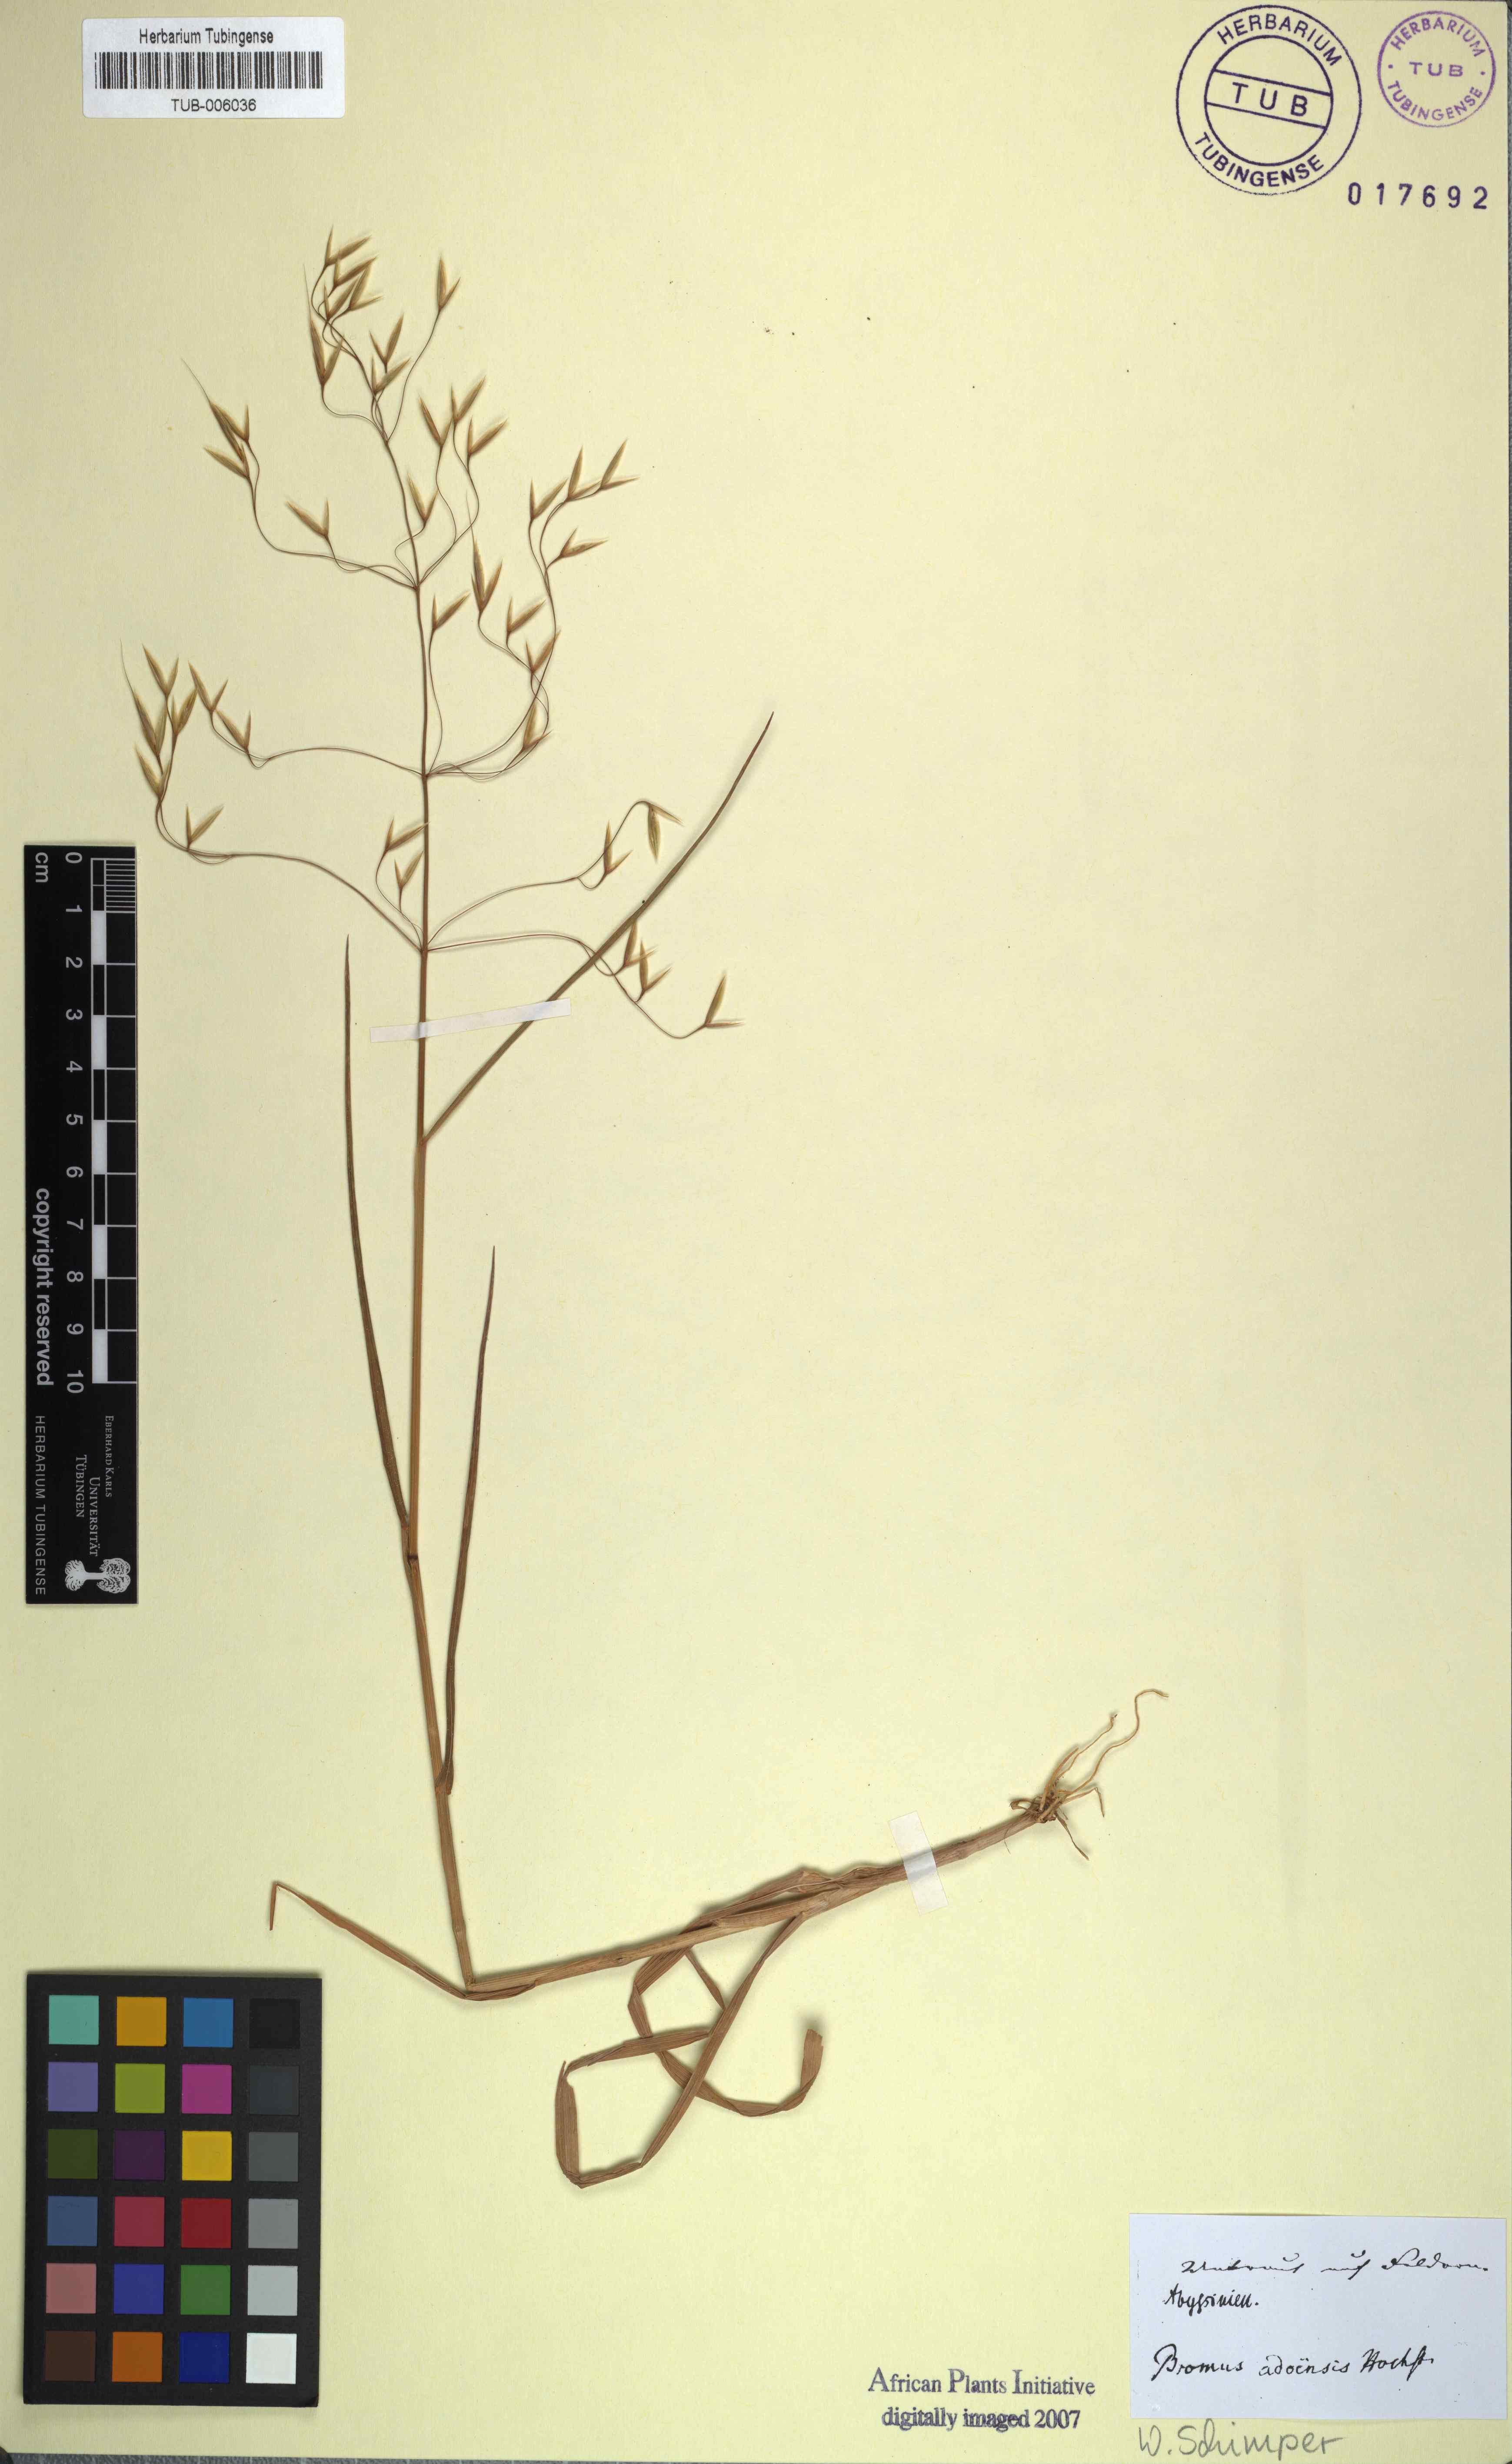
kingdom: Plantae
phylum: Tracheophyta
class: Liliopsida
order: Poales
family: Poaceae
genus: Bromus
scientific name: Bromus pectinatus
